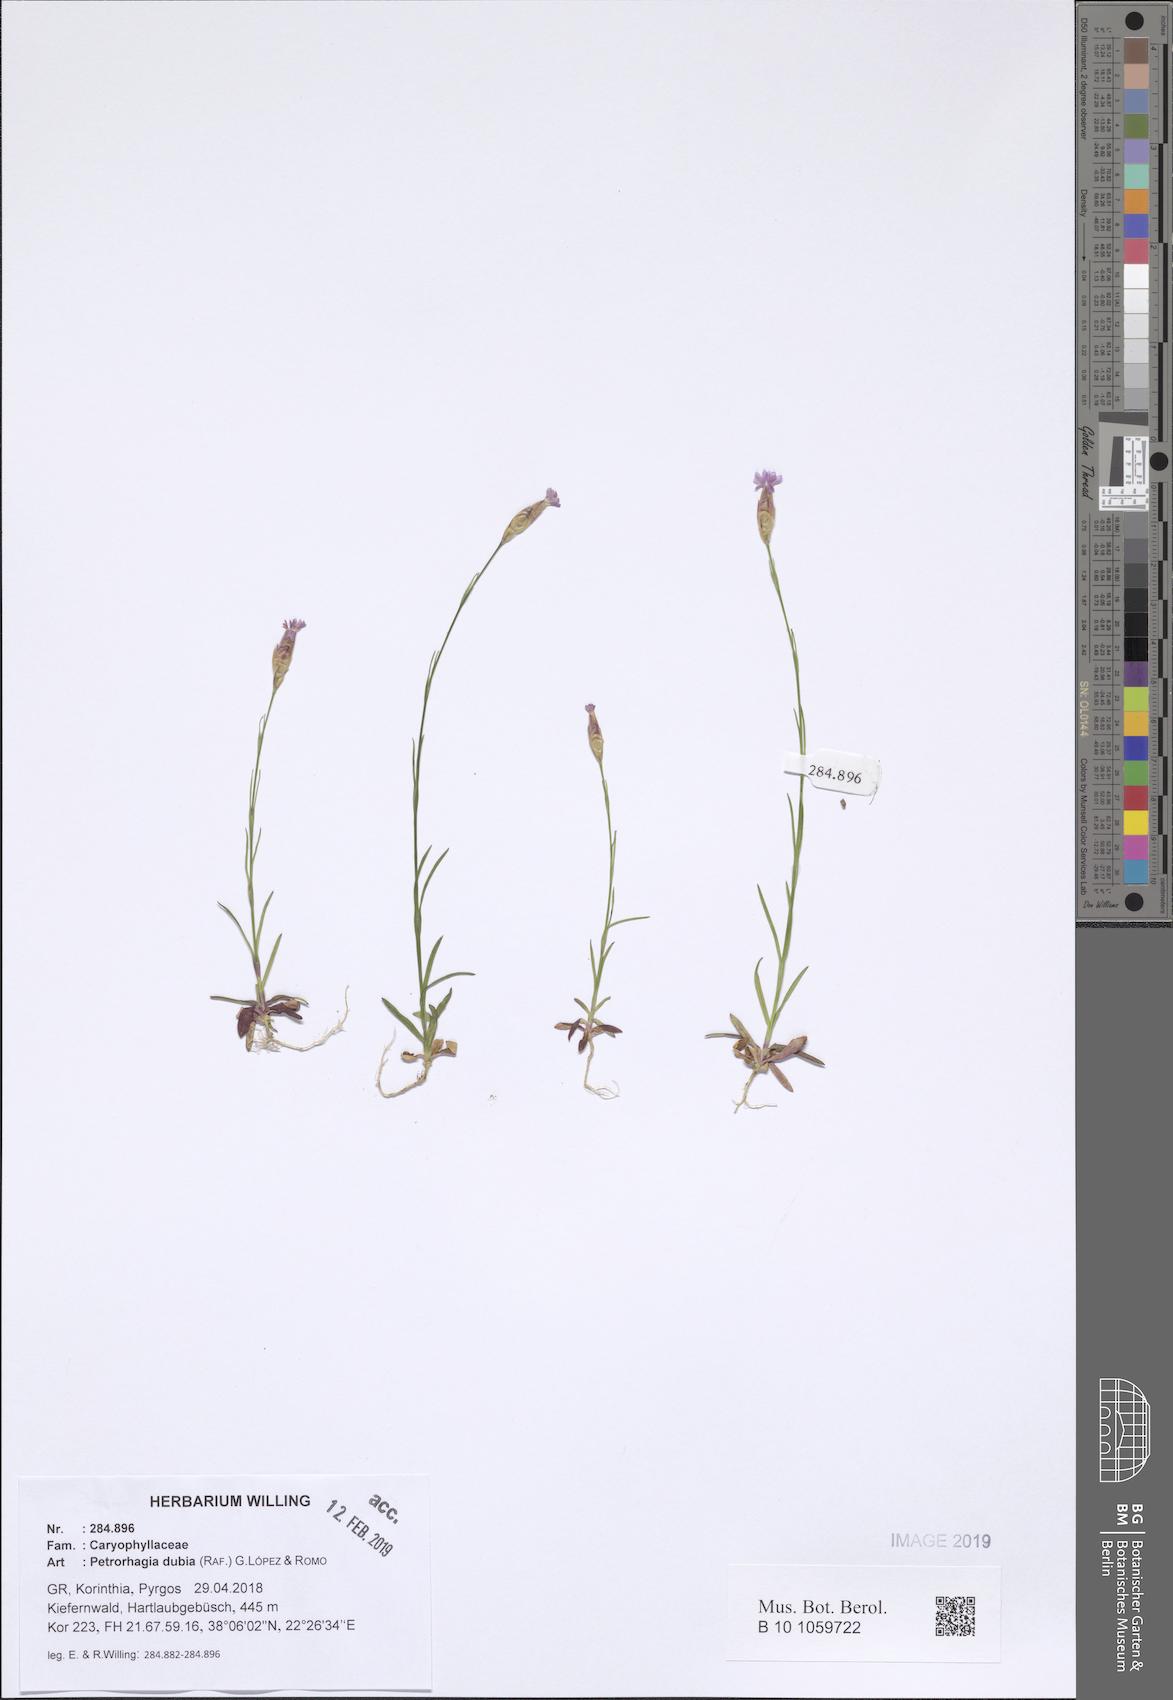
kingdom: Plantae
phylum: Tracheophyta
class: Magnoliopsida
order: Caryophyllales
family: Caryophyllaceae
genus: Petrorhagia
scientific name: Petrorhagia dubia
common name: Hairypink
